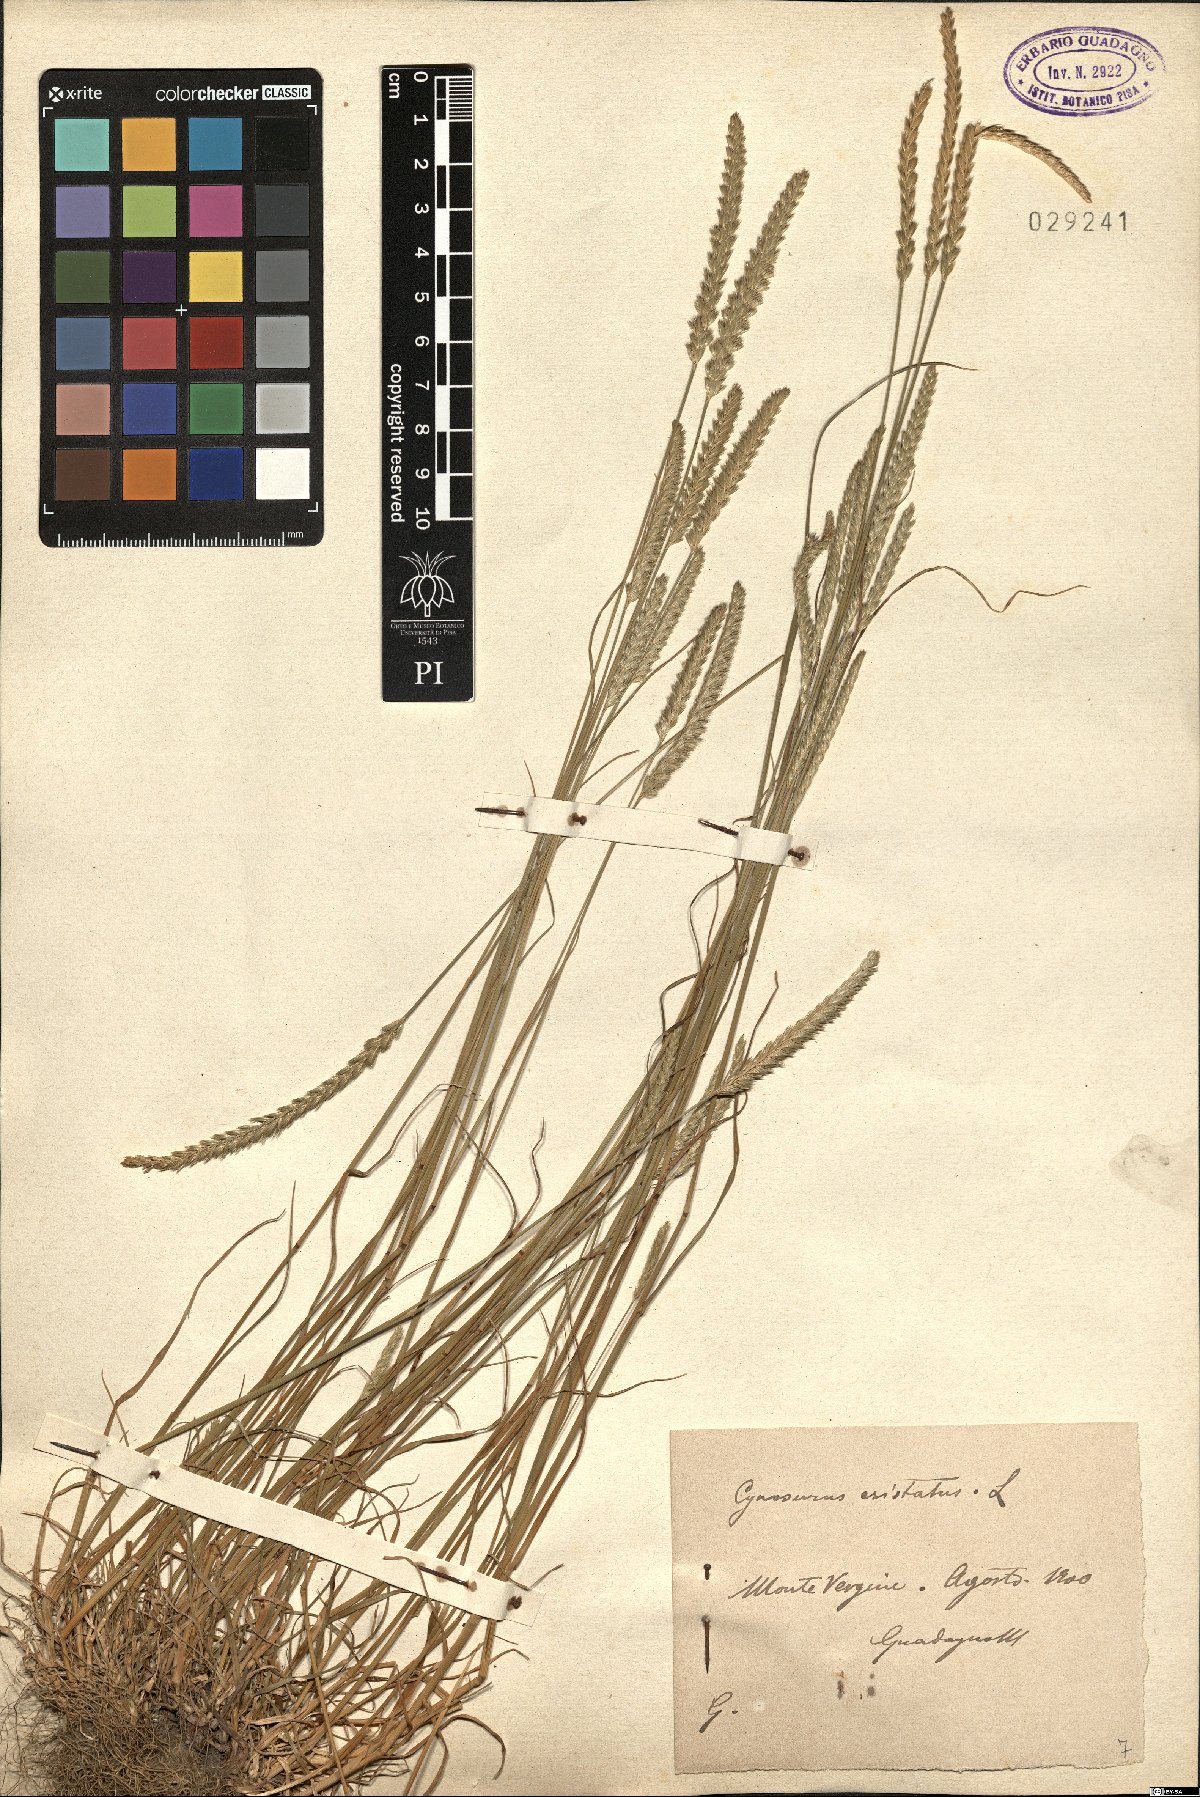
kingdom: Plantae
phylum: Tracheophyta
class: Liliopsida
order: Poales
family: Poaceae
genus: Cynosurus
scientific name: Cynosurus cristatus
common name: Crested dog's-tail
